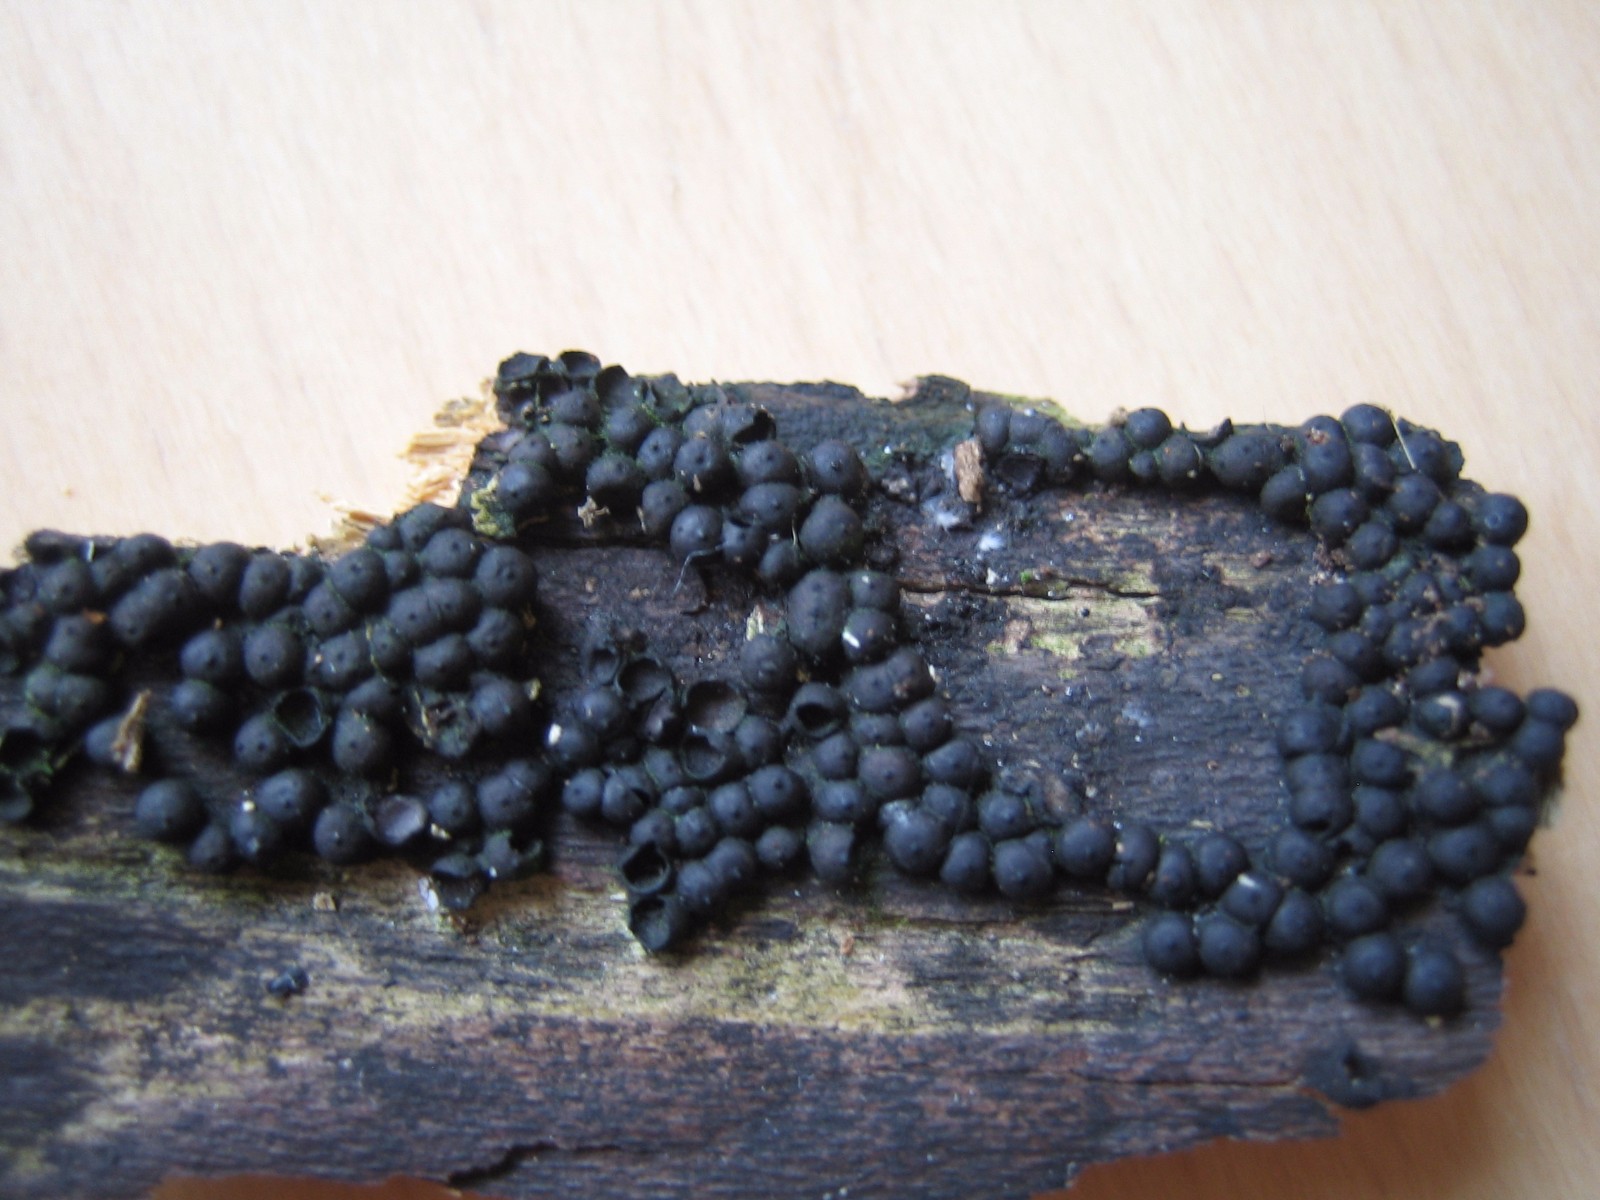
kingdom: Fungi
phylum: Ascomycota
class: Sordariomycetes
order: Xylariales
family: Xylariaceae
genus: Rosellinia
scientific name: Rosellinia
